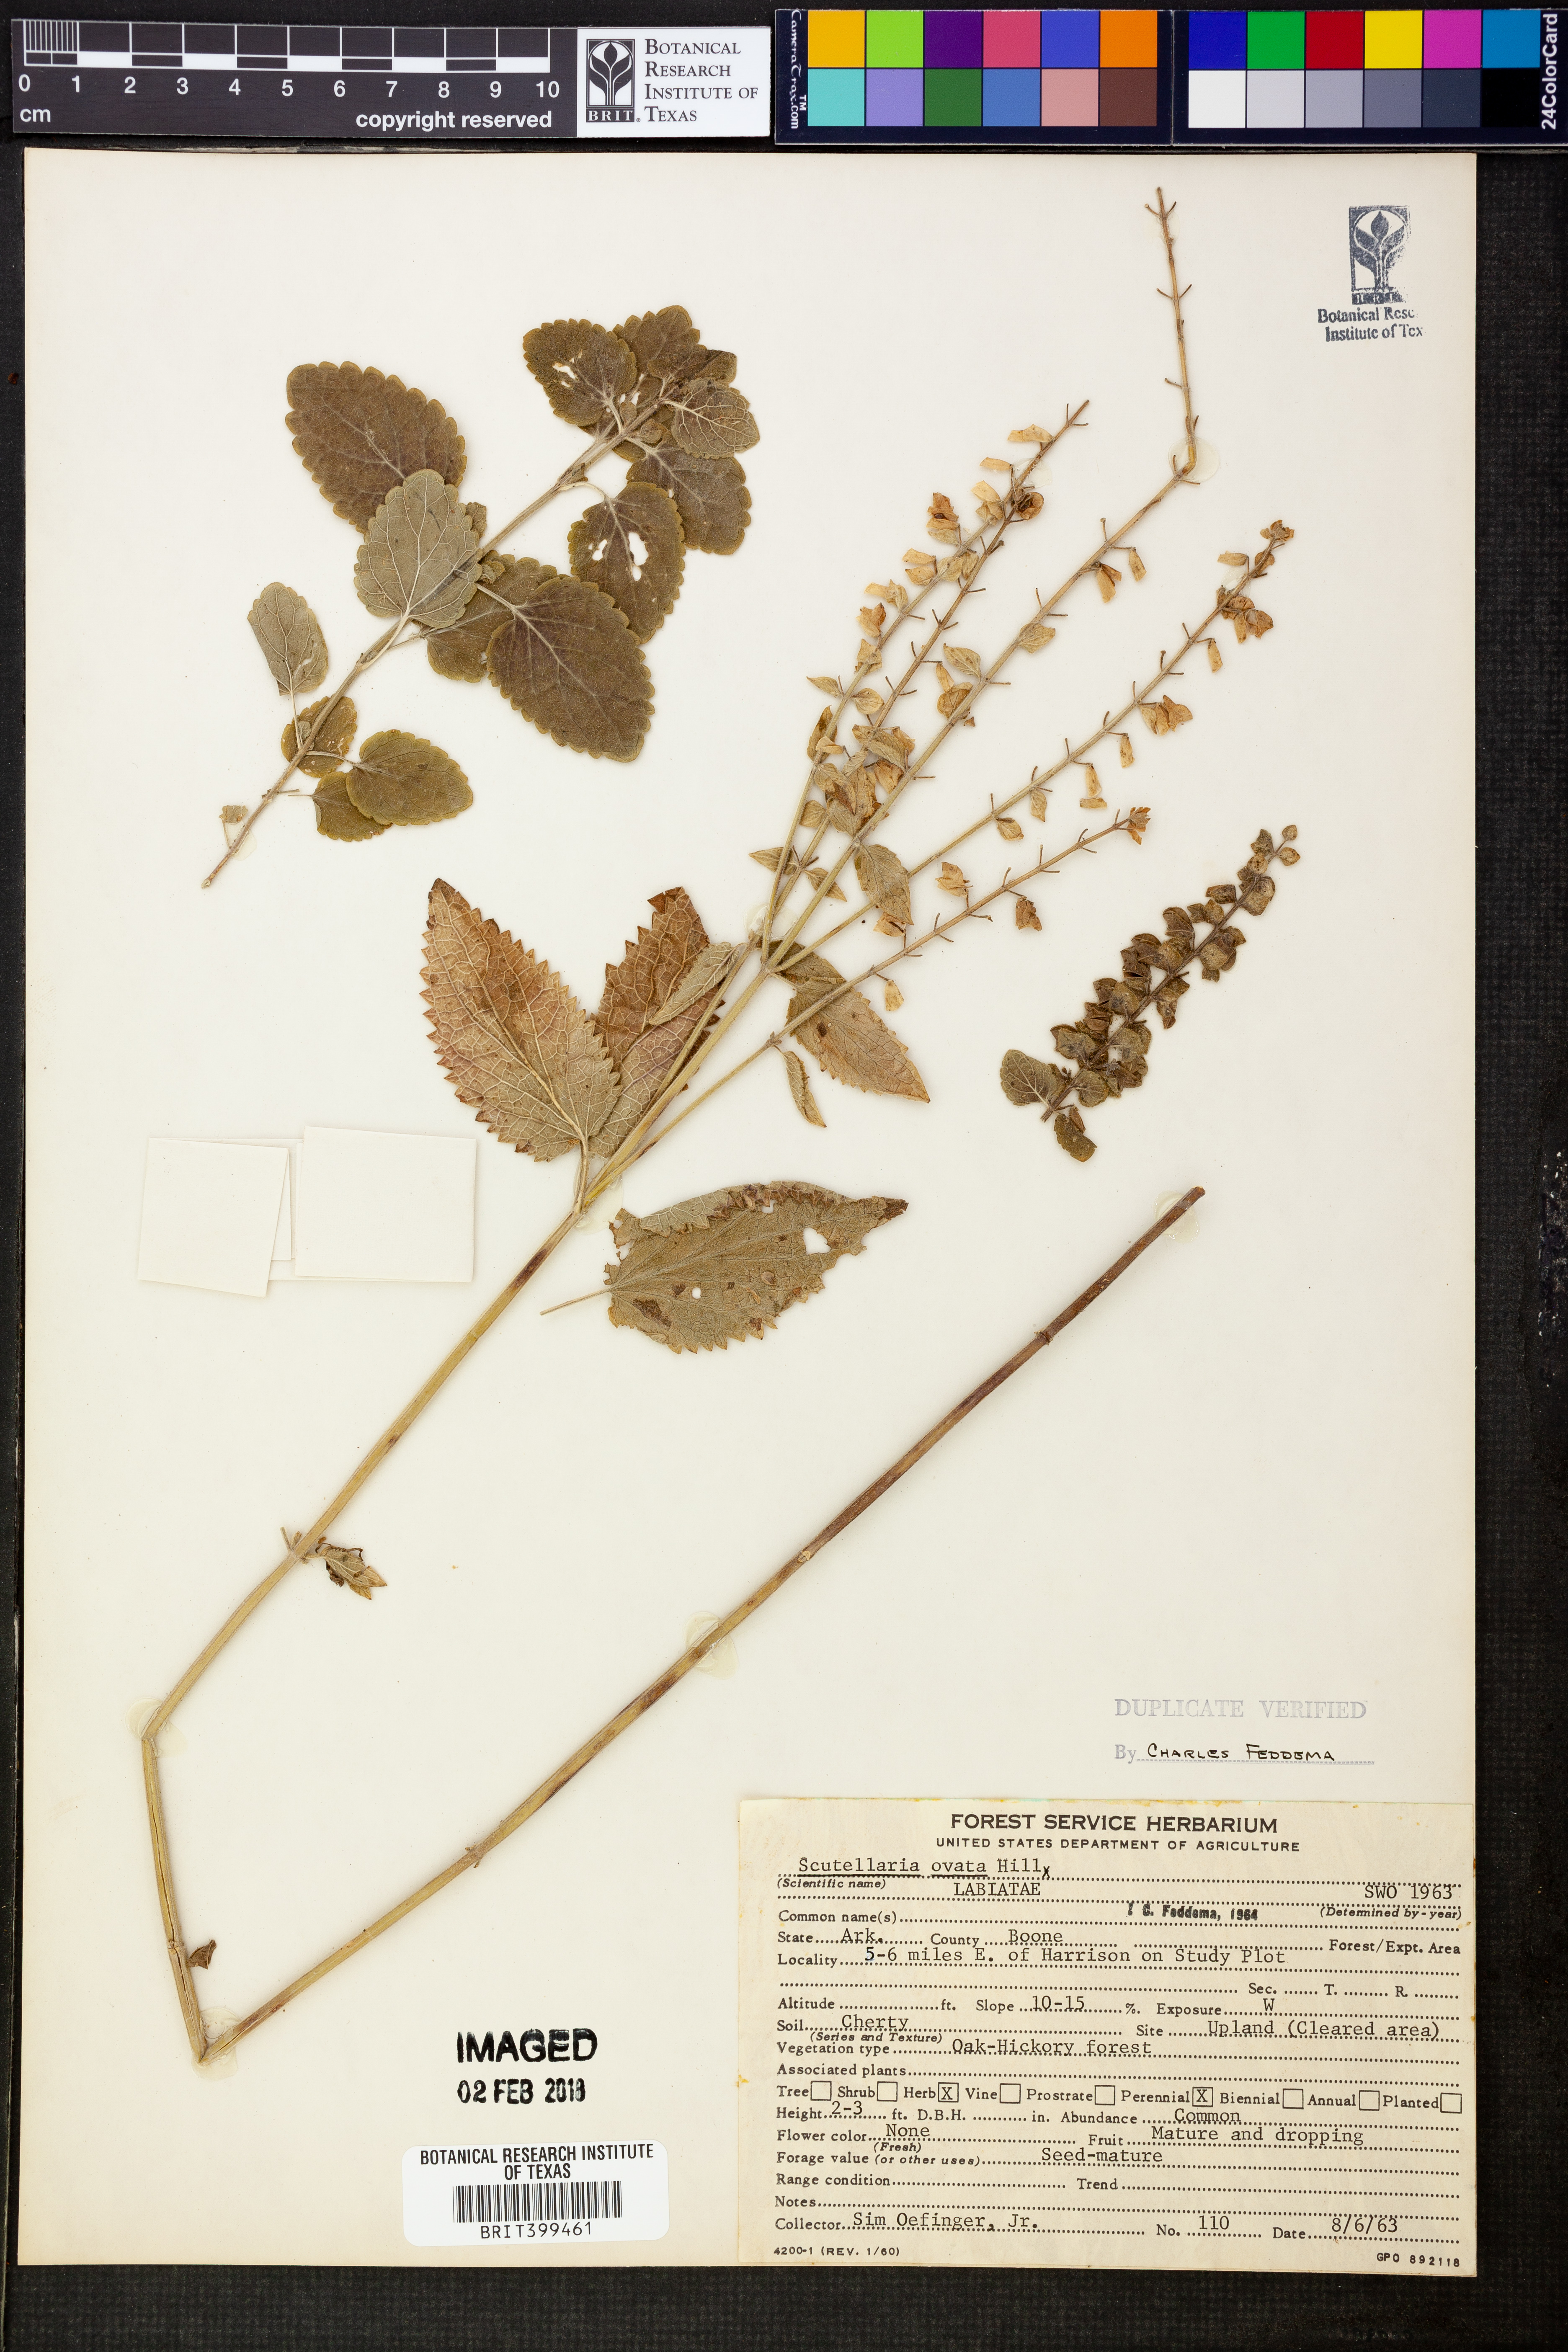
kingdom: Plantae
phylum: Tracheophyta
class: Magnoliopsida
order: Lamiales
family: Lamiaceae
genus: Scutellaria
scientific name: Scutellaria ovata
